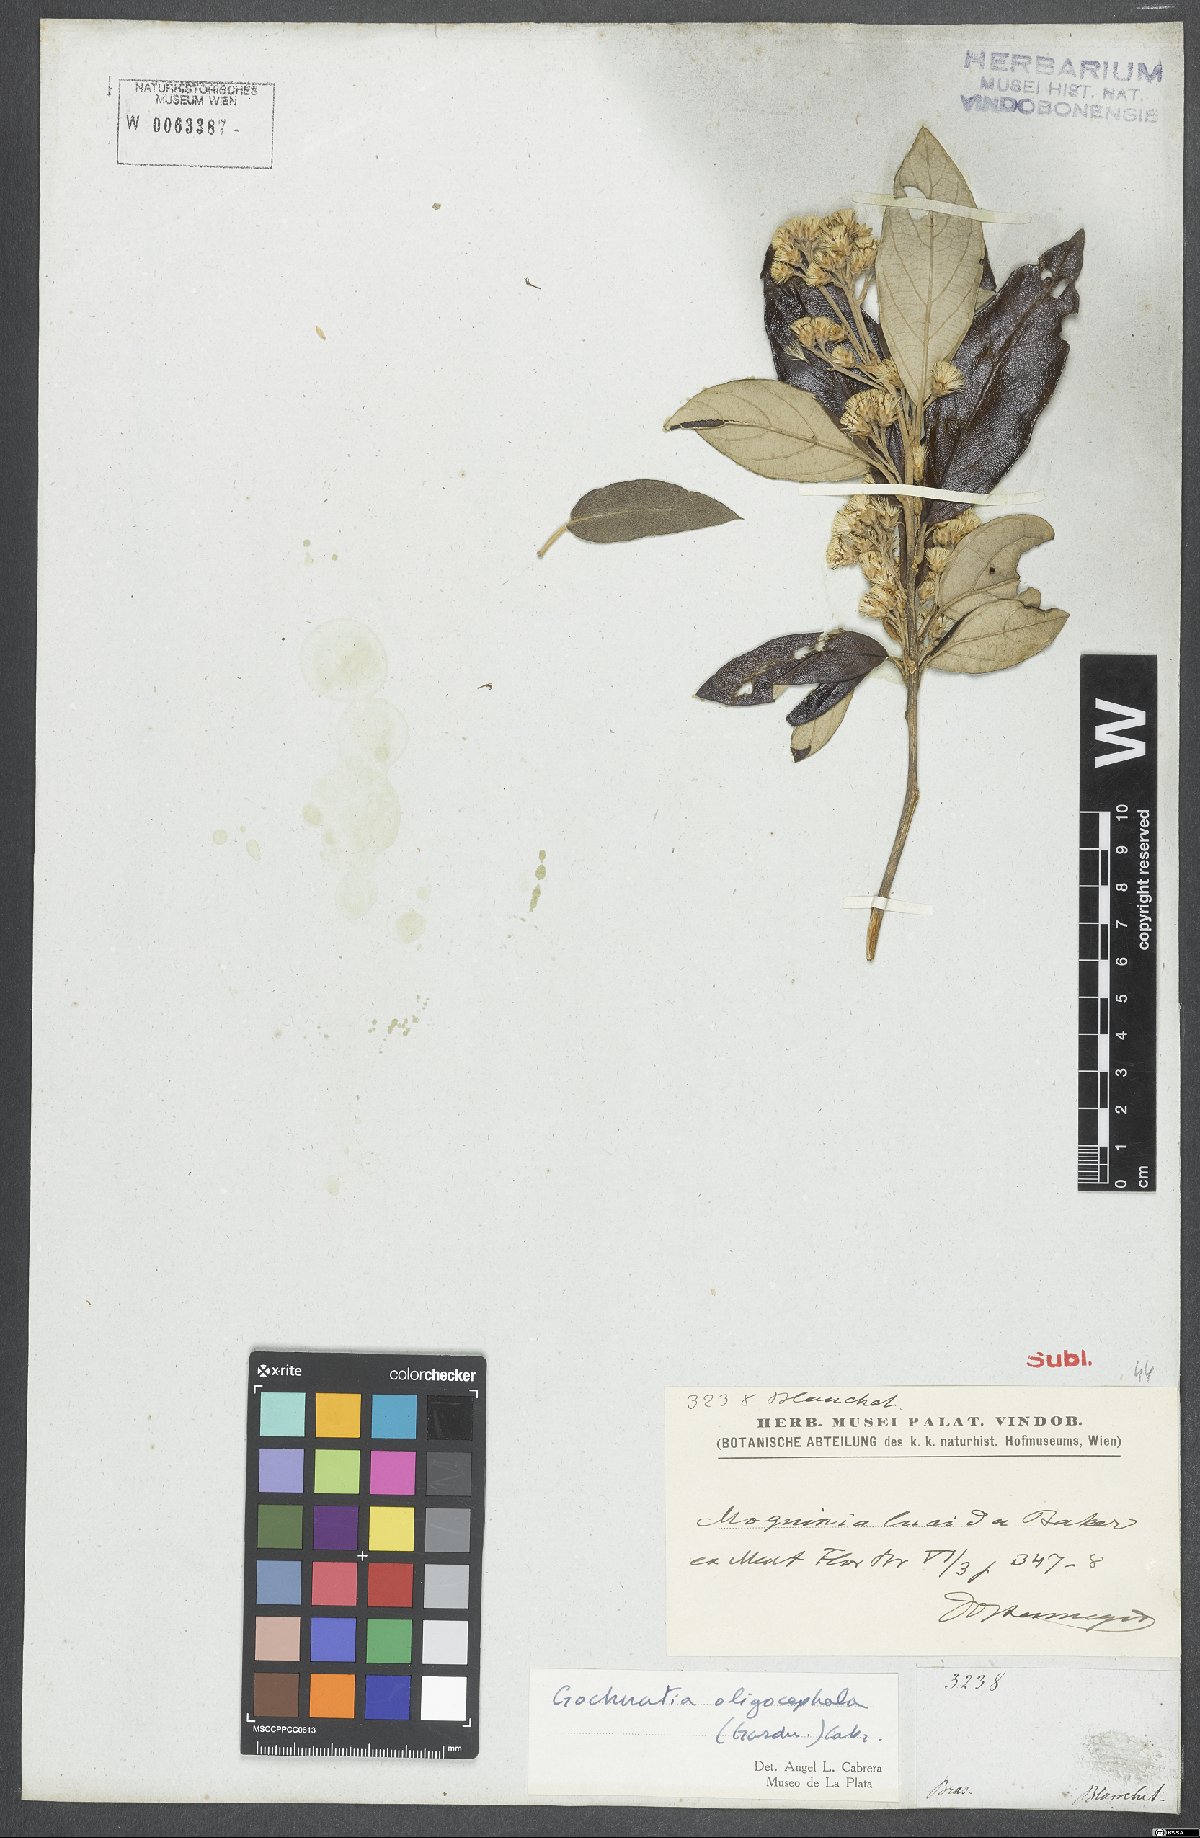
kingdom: Plantae
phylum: Tracheophyta
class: Magnoliopsida
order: Asterales
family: Asteraceae
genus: Moquiniastrum
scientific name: Moquiniastrum oligocephalum
